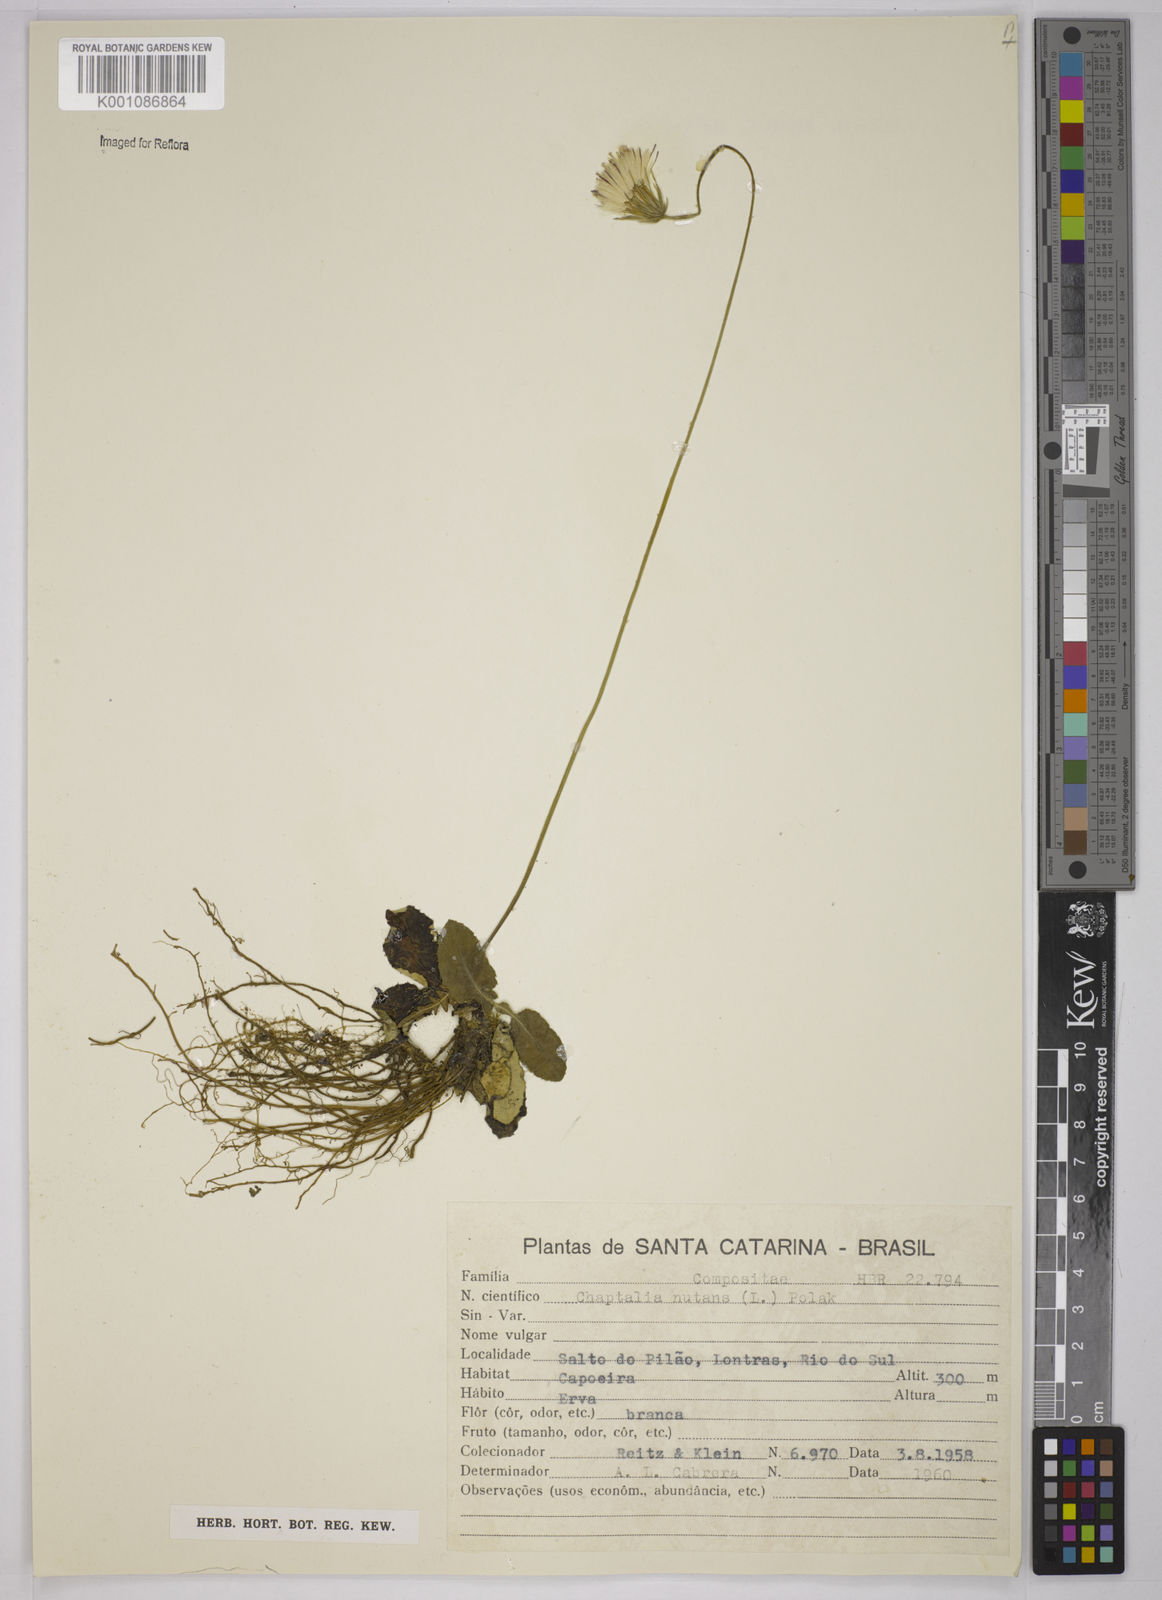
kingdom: Plantae
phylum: Tracheophyta
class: Magnoliopsida
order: Asterales
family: Asteraceae
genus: Chaptalia
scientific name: Chaptalia nutans
